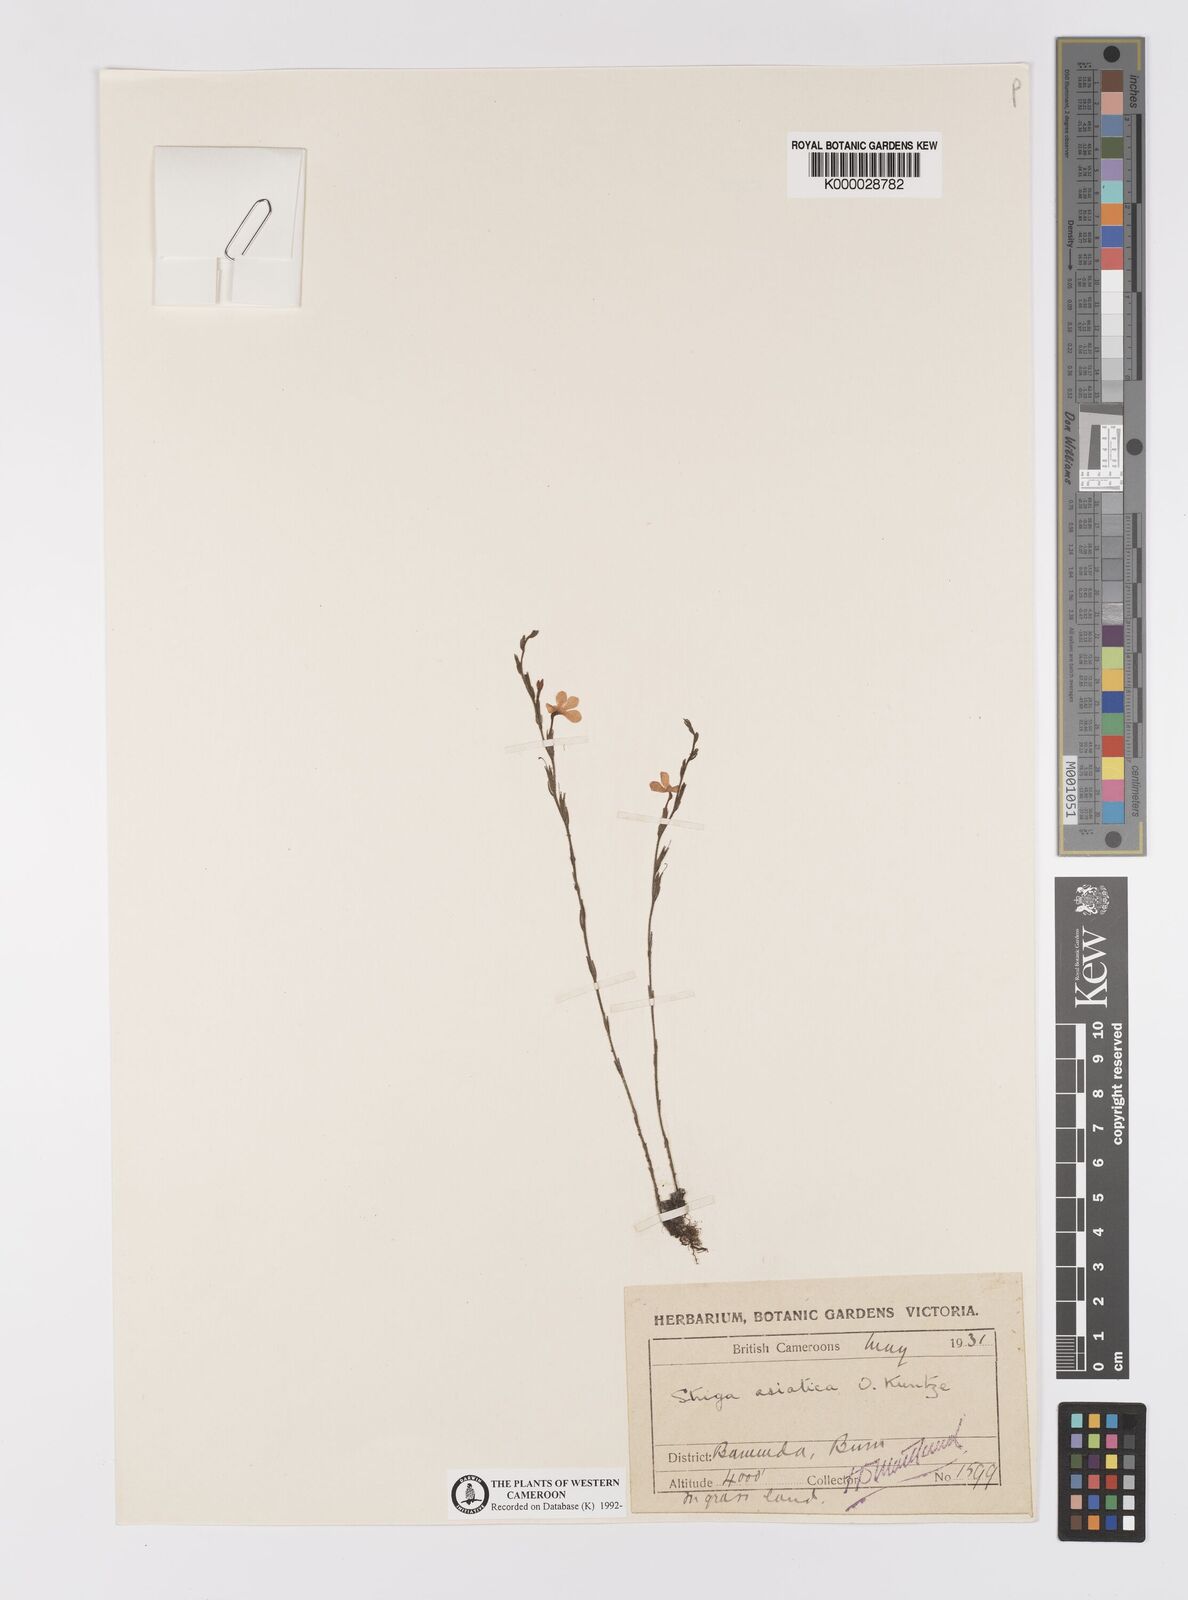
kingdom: Plantae
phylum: Tracheophyta
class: Magnoliopsida
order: Lamiales
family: Orobanchaceae
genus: Striga
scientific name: Striga asiatica
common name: Asiatic witchweed
